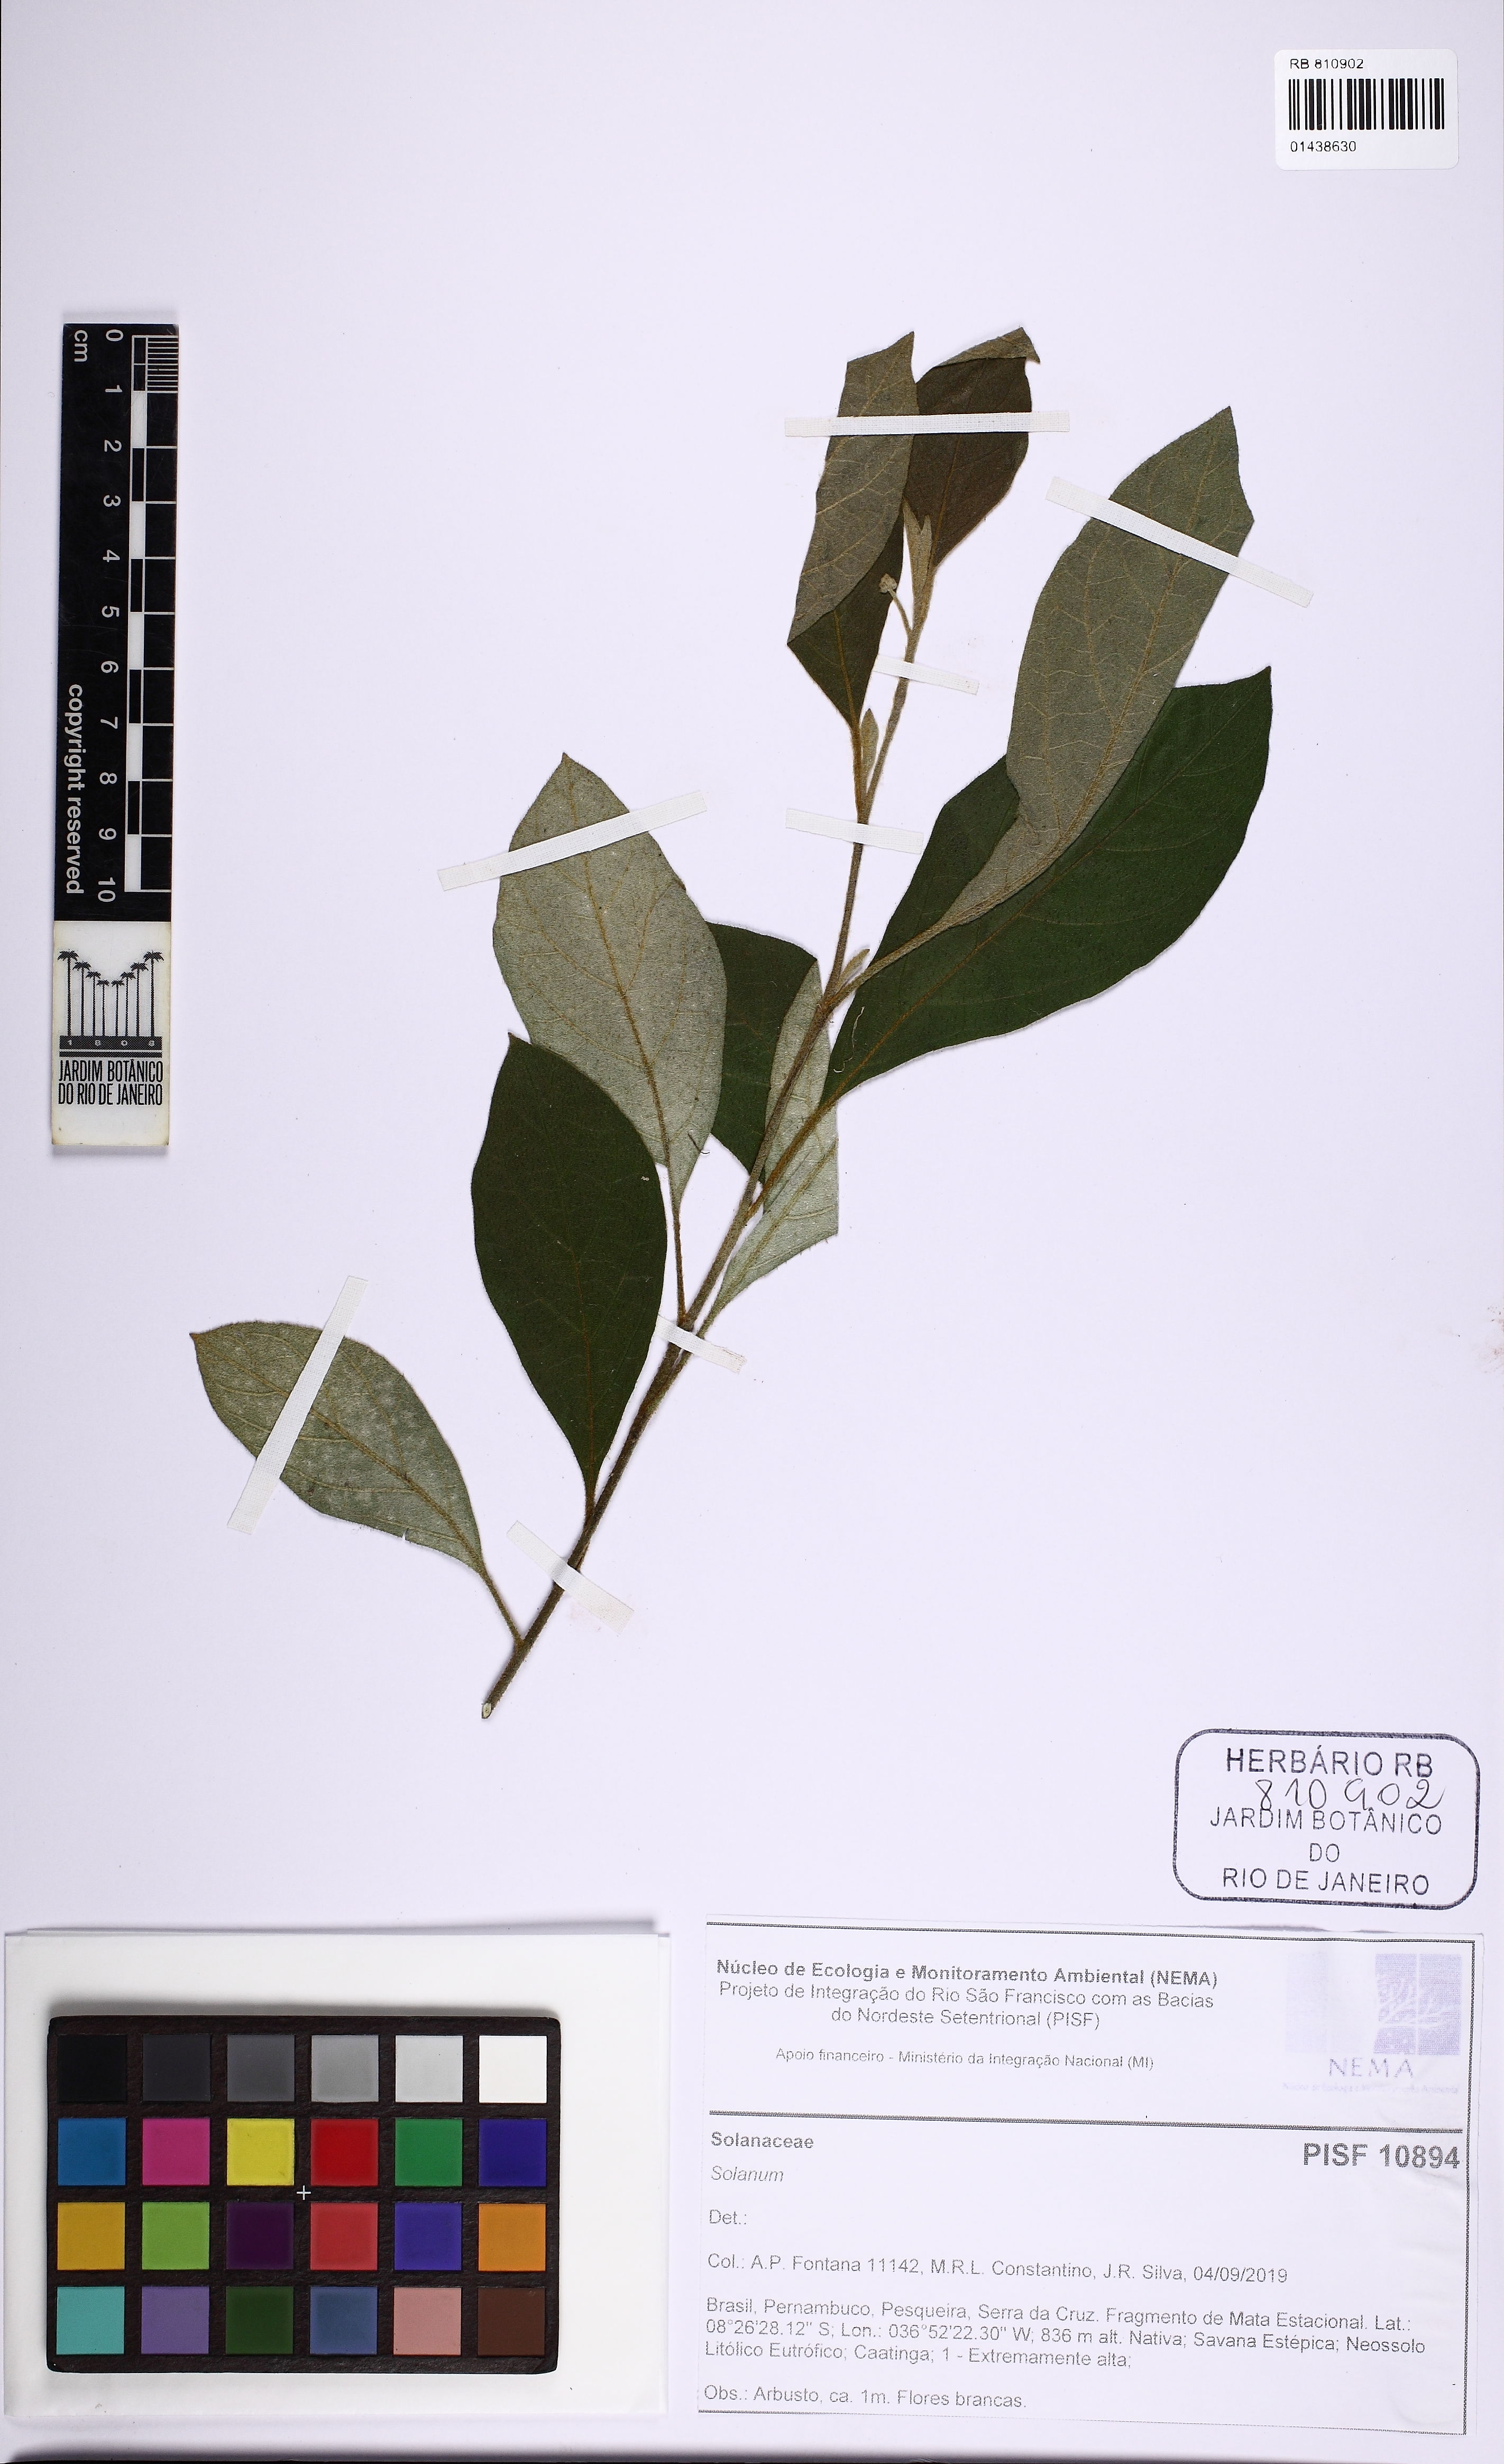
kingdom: Plantae
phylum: Tracheophyta
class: Magnoliopsida
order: Solanales
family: Solanaceae
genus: Solanum
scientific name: Solanum
